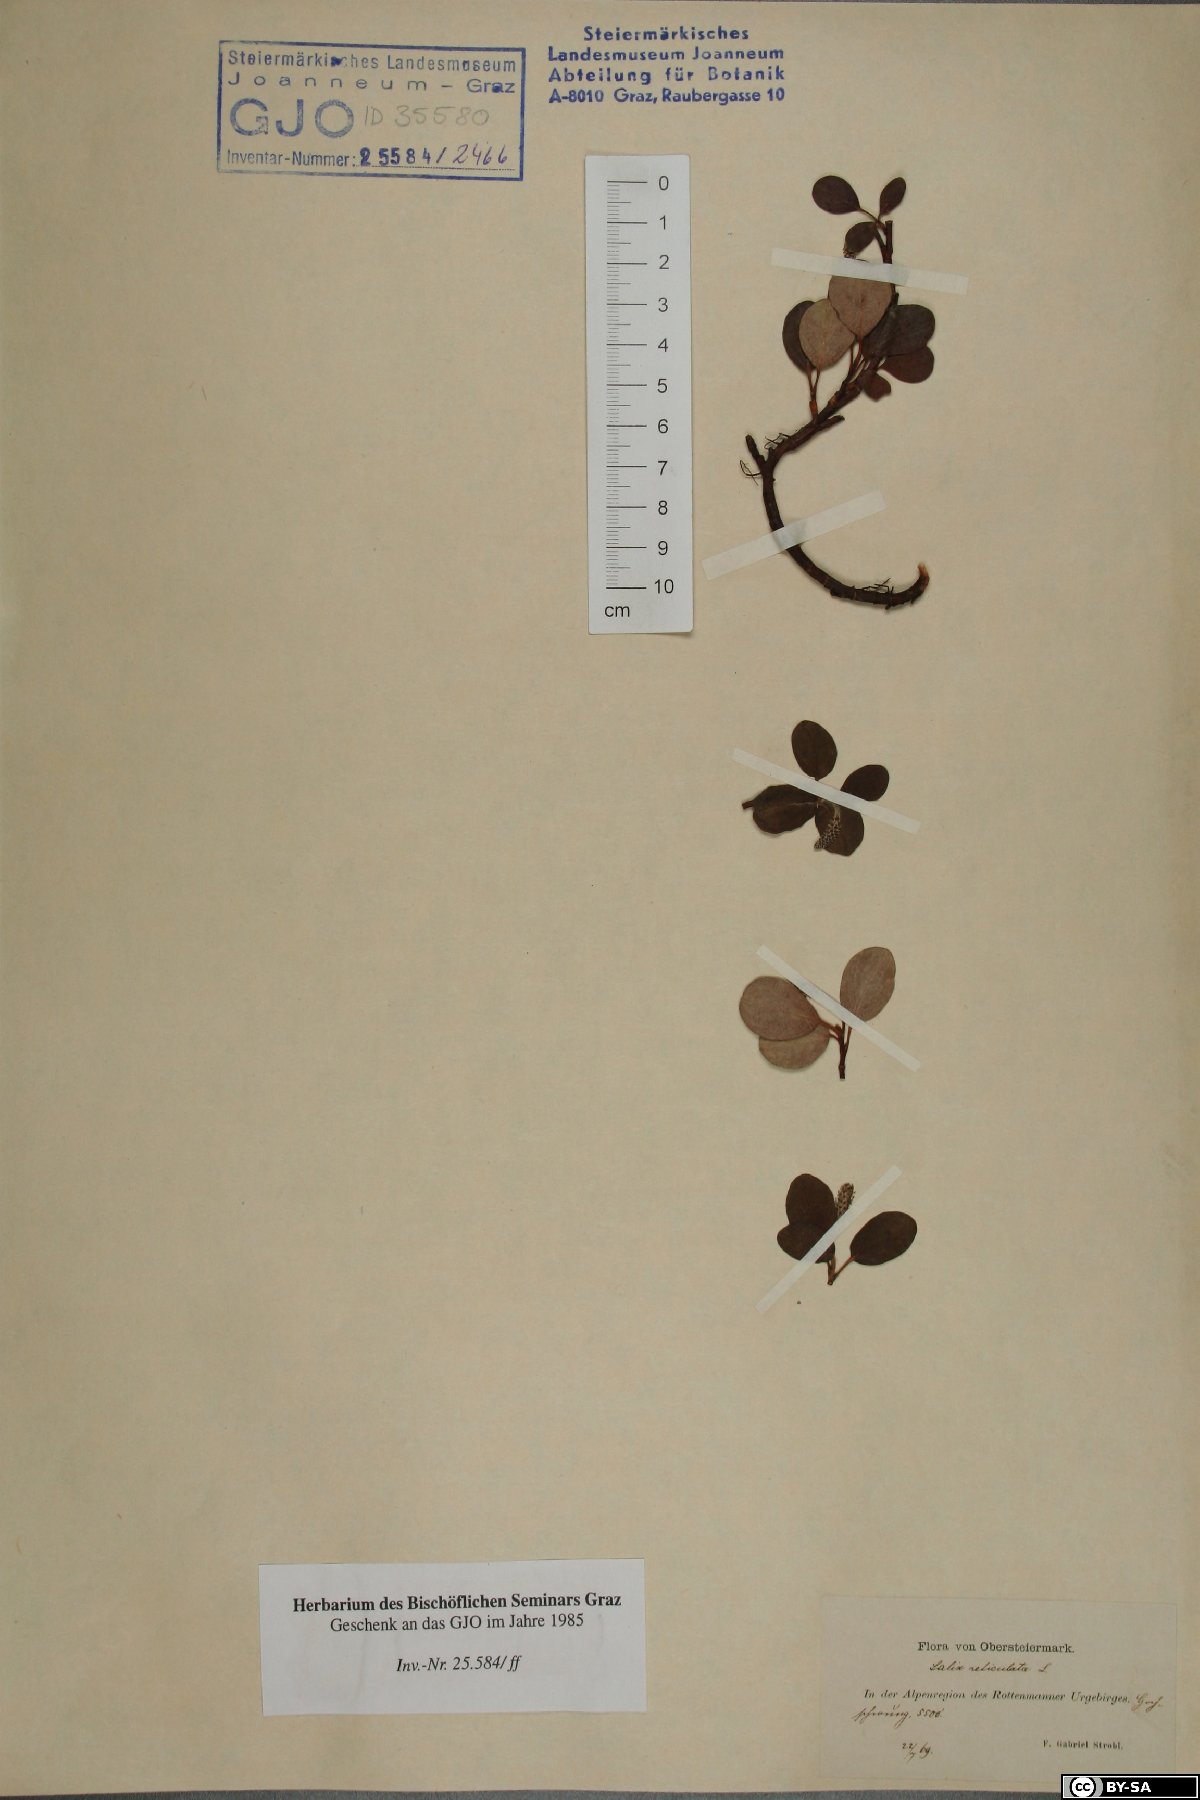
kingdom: Plantae
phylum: Tracheophyta
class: Magnoliopsida
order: Malpighiales
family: Salicaceae
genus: Salix
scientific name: Salix reticulata
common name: Net-leaved willow
